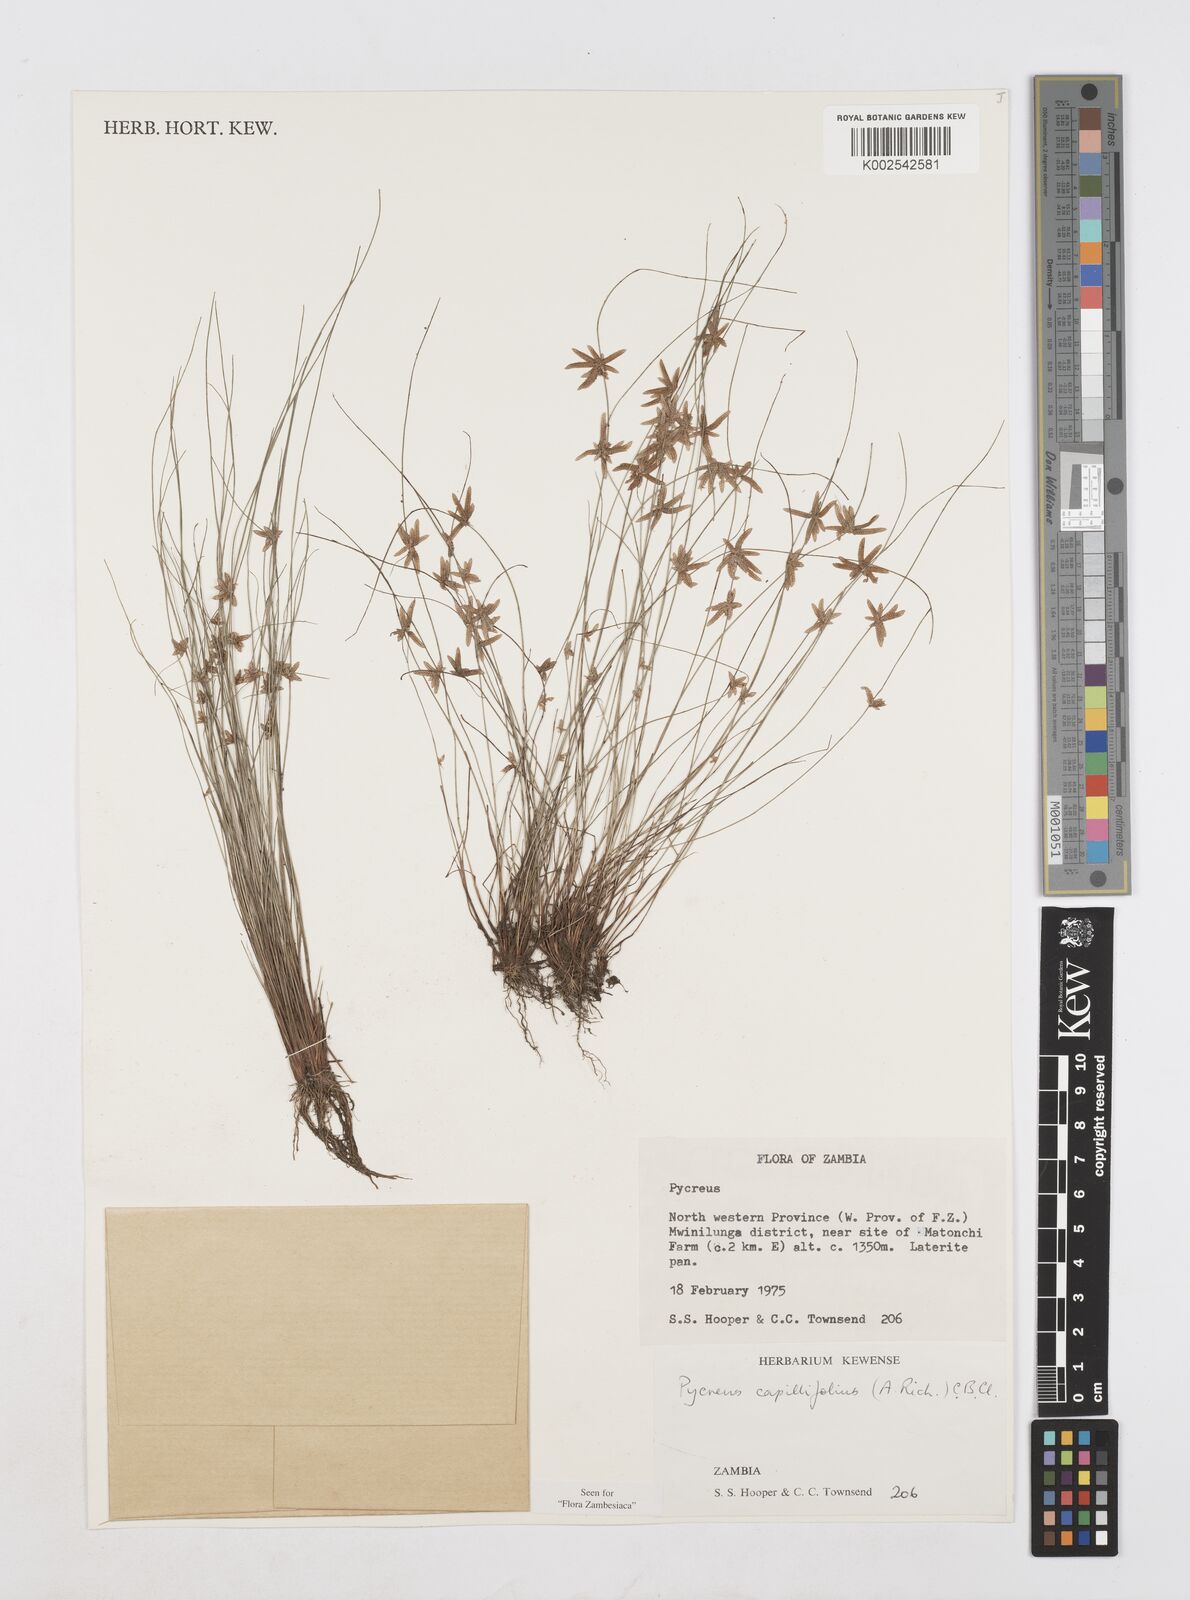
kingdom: Plantae
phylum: Tracheophyta
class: Liliopsida
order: Poales
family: Cyperaceae
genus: Cyperus
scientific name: Cyperus capillifolius
